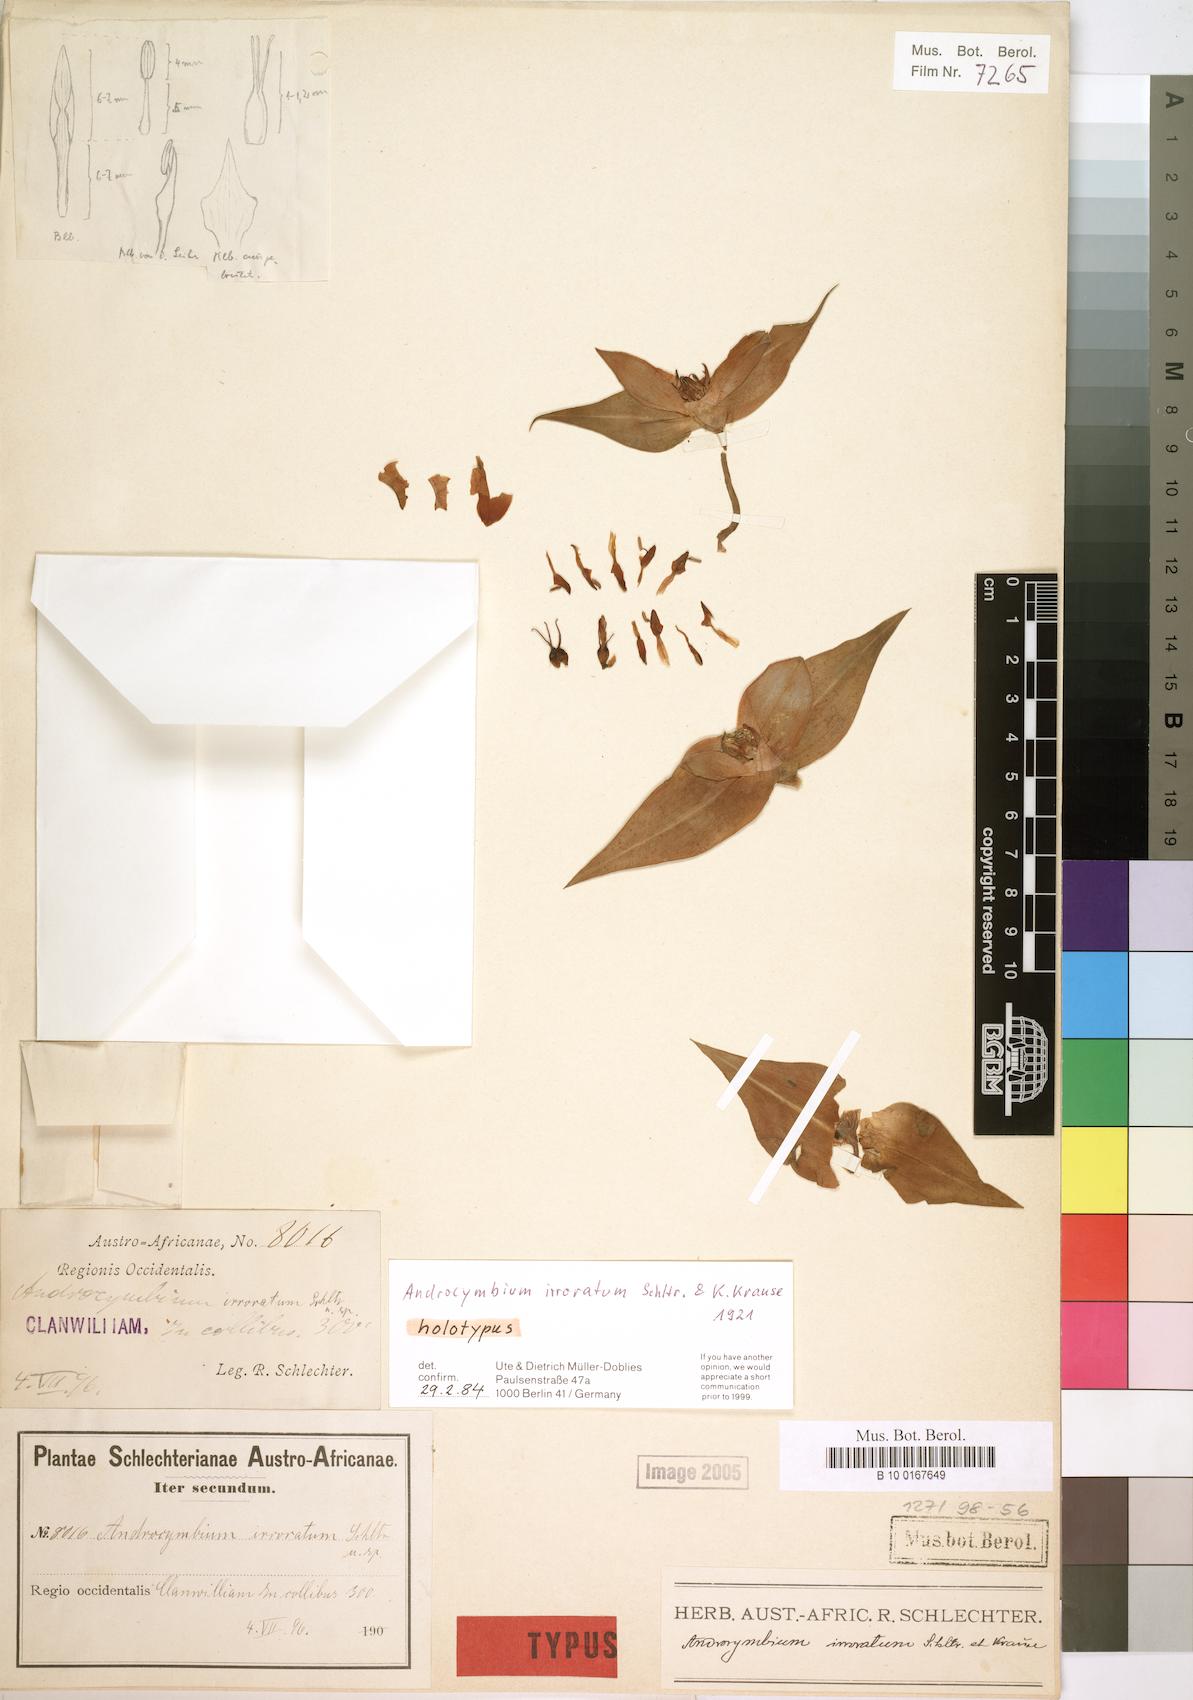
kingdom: Plantae
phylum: Tracheophyta
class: Liliopsida
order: Liliales
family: Colchicaceae
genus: Colchicum
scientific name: Colchicum irroratum
